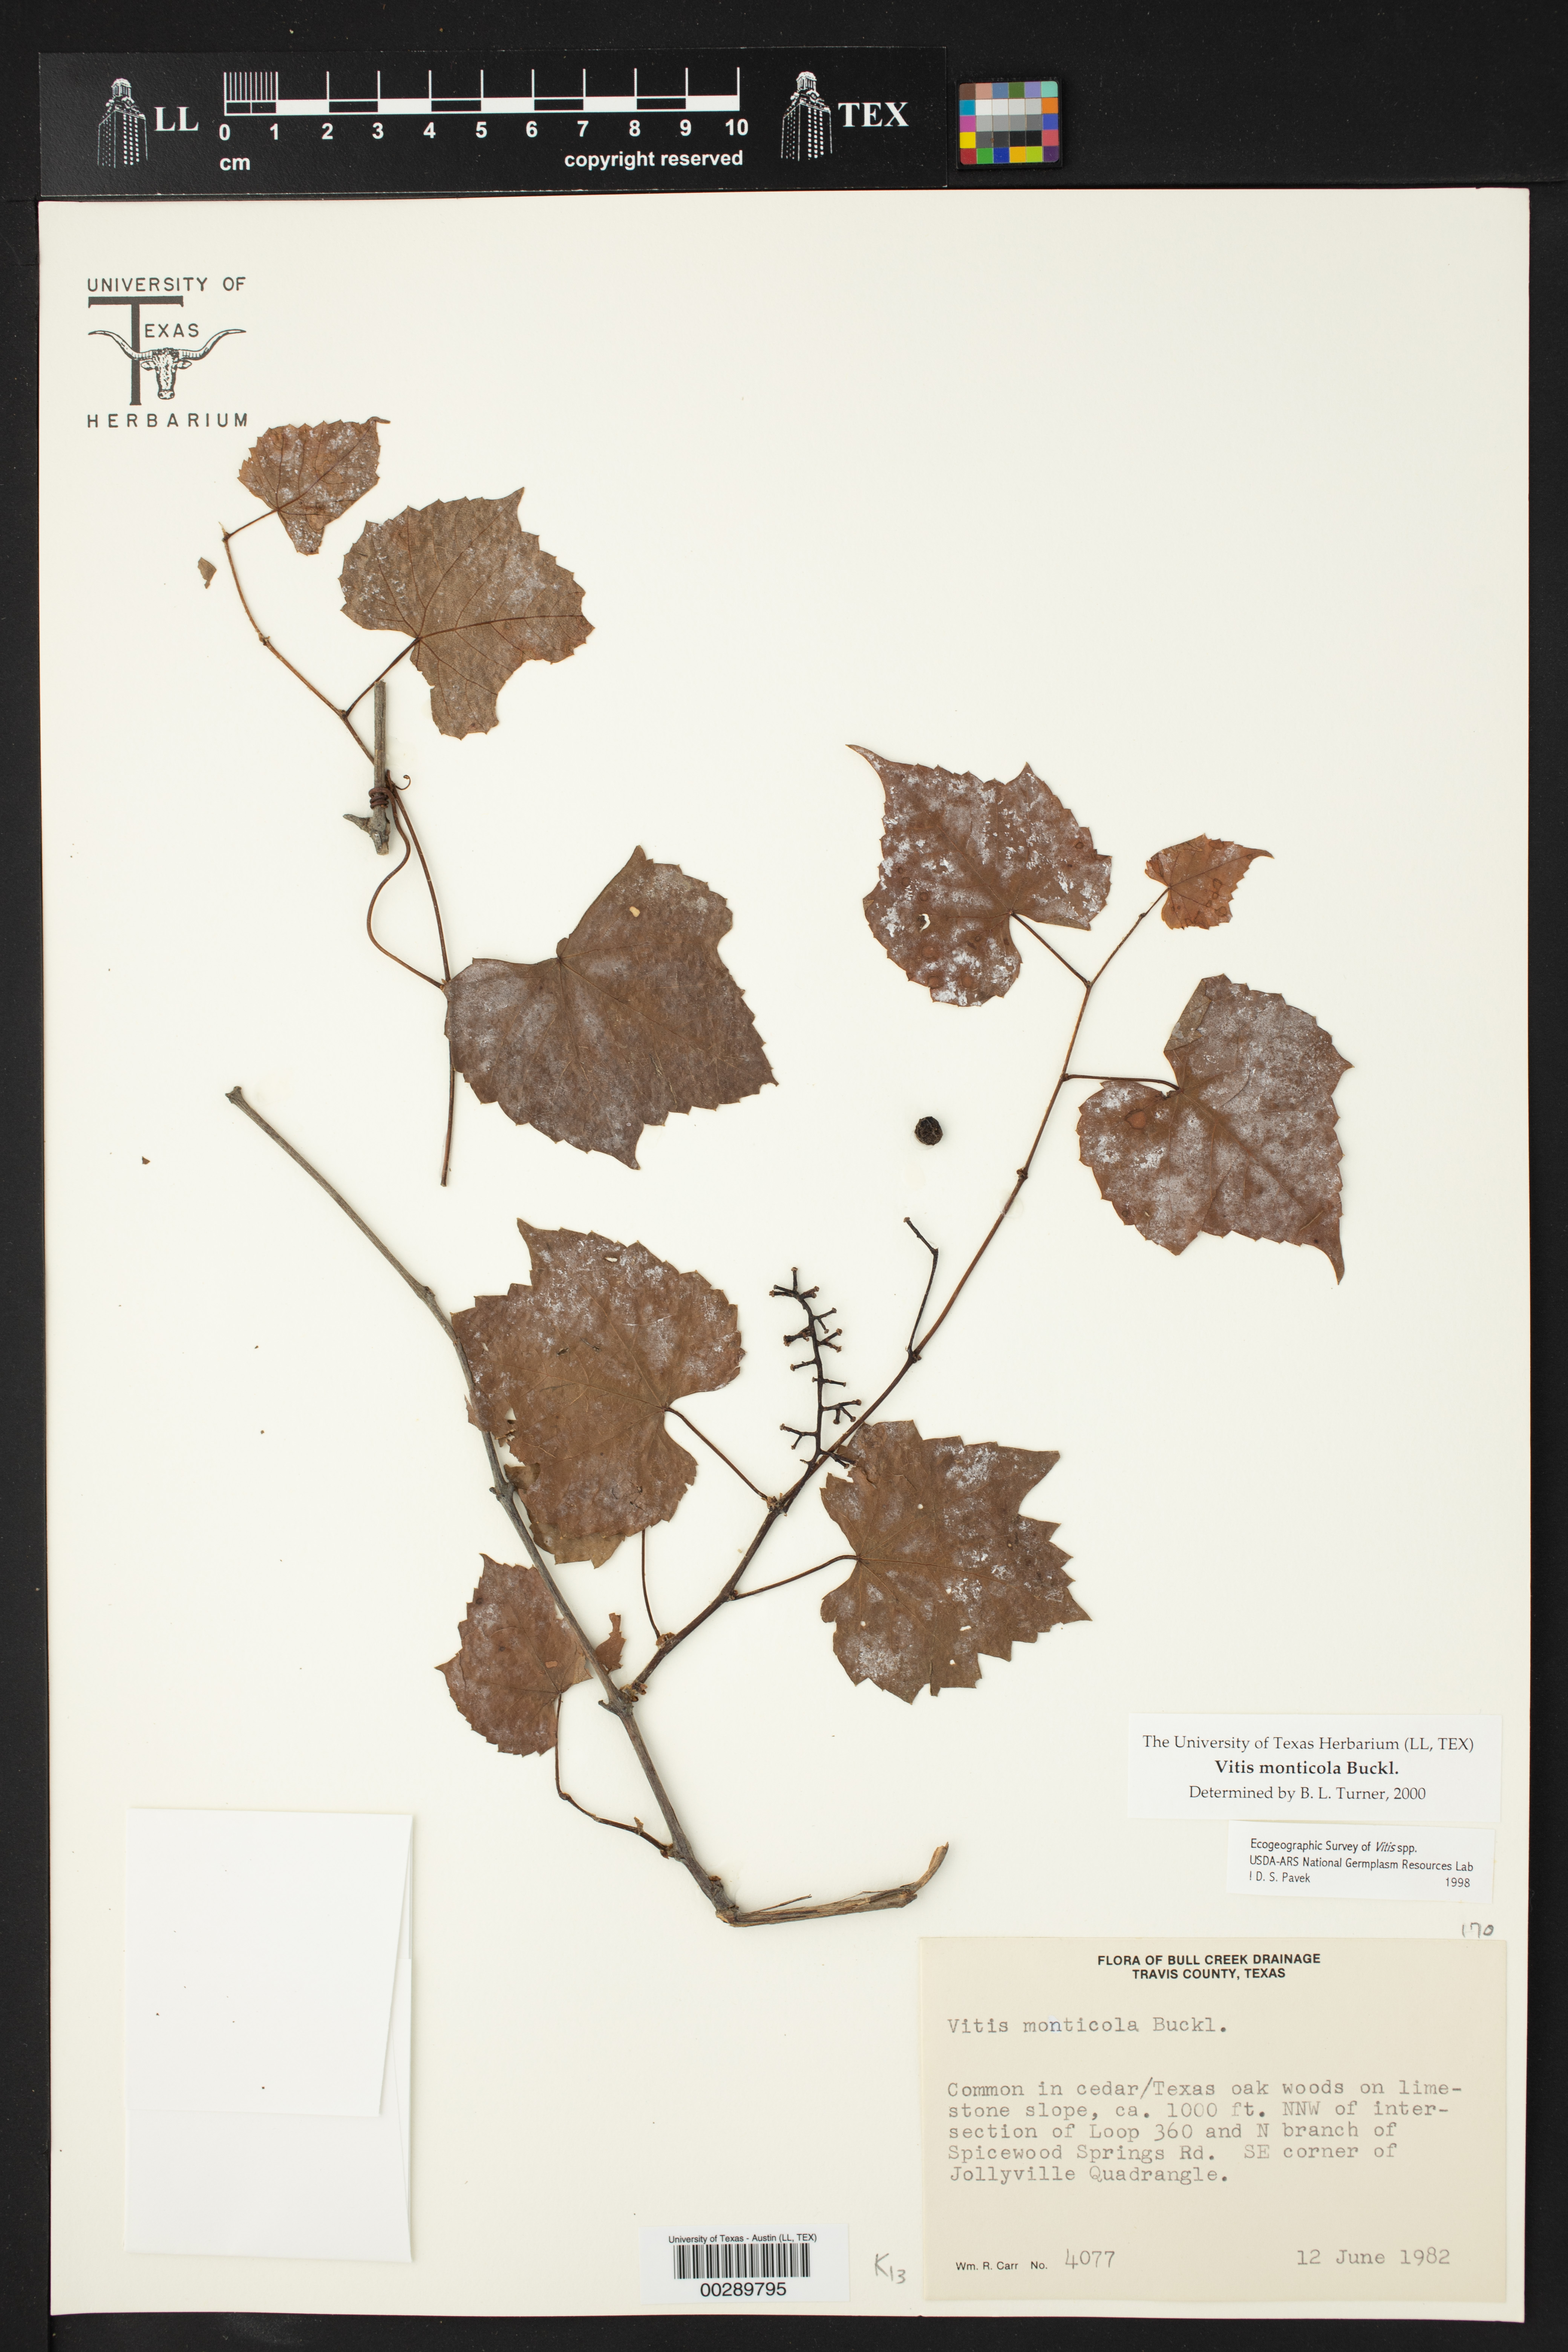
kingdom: Plantae
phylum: Tracheophyta
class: Magnoliopsida
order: Vitales
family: Vitaceae
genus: Vitis
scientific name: Vitis monticola
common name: Mountain grape
